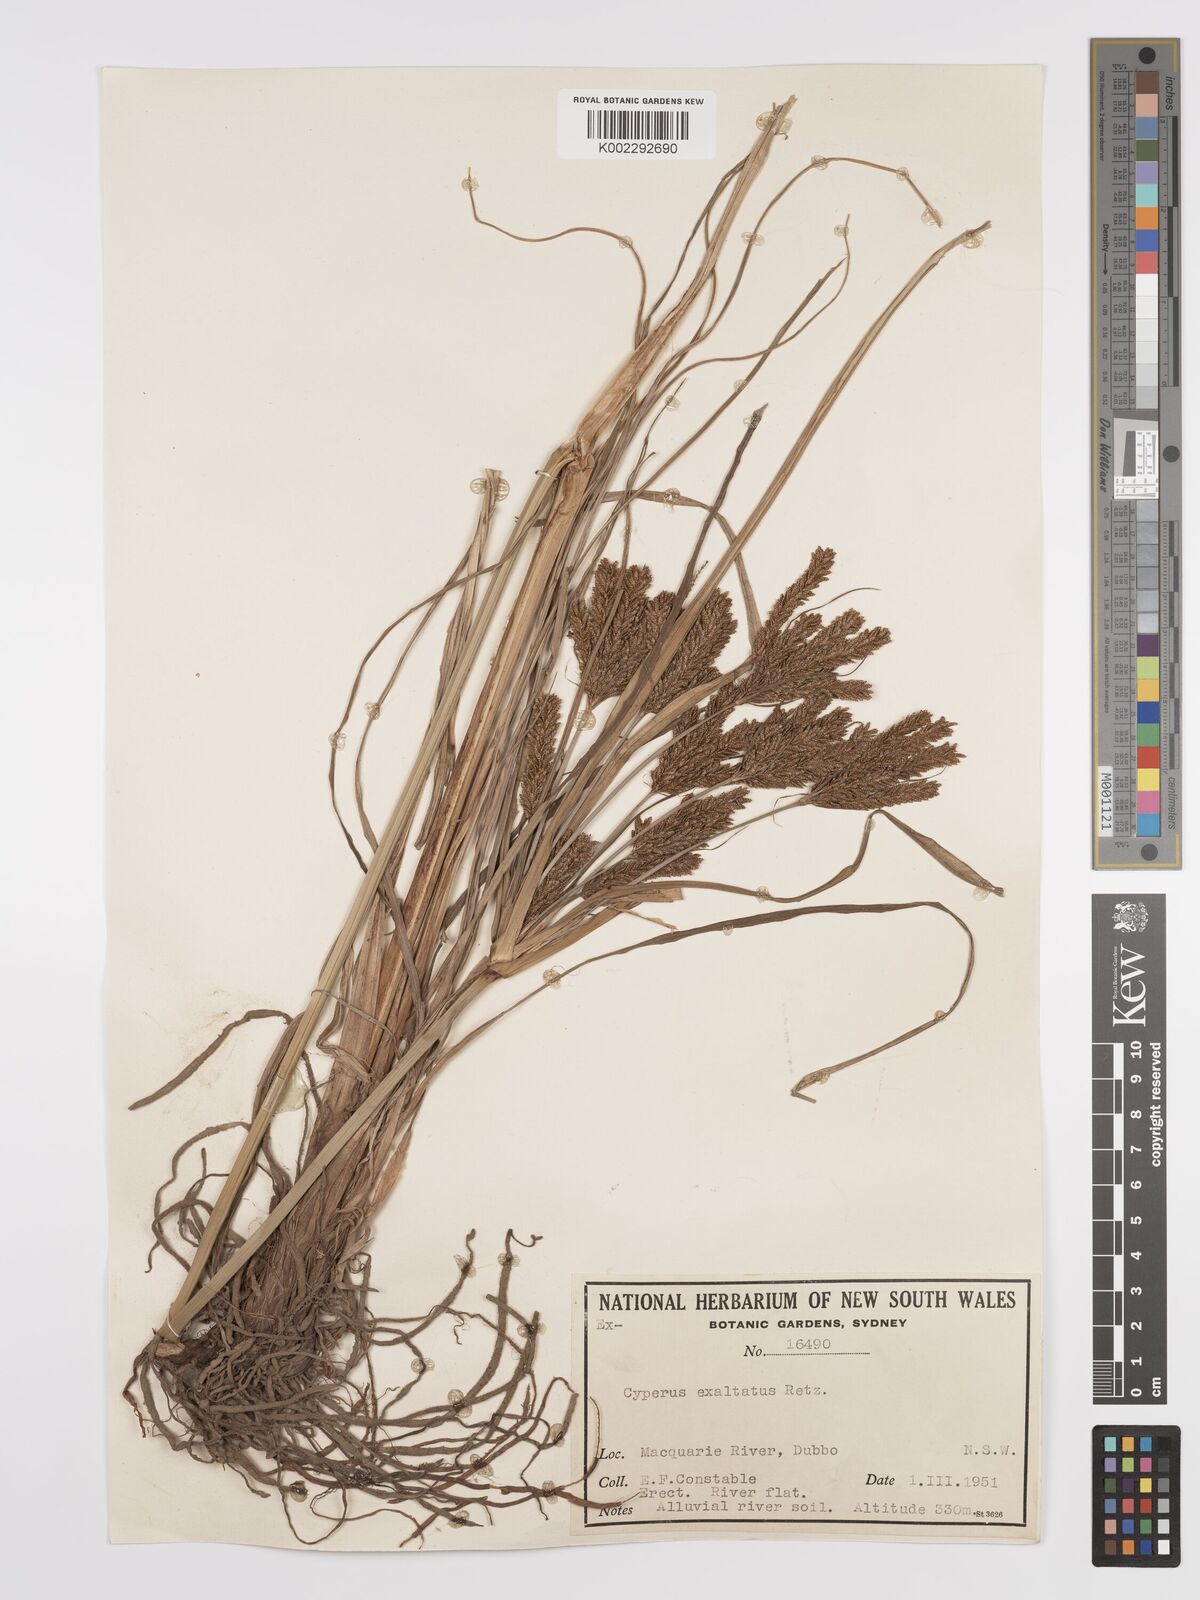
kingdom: Plantae
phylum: Tracheophyta
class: Liliopsida
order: Poales
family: Cyperaceae
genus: Cyperus
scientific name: Cyperus exaltatus
